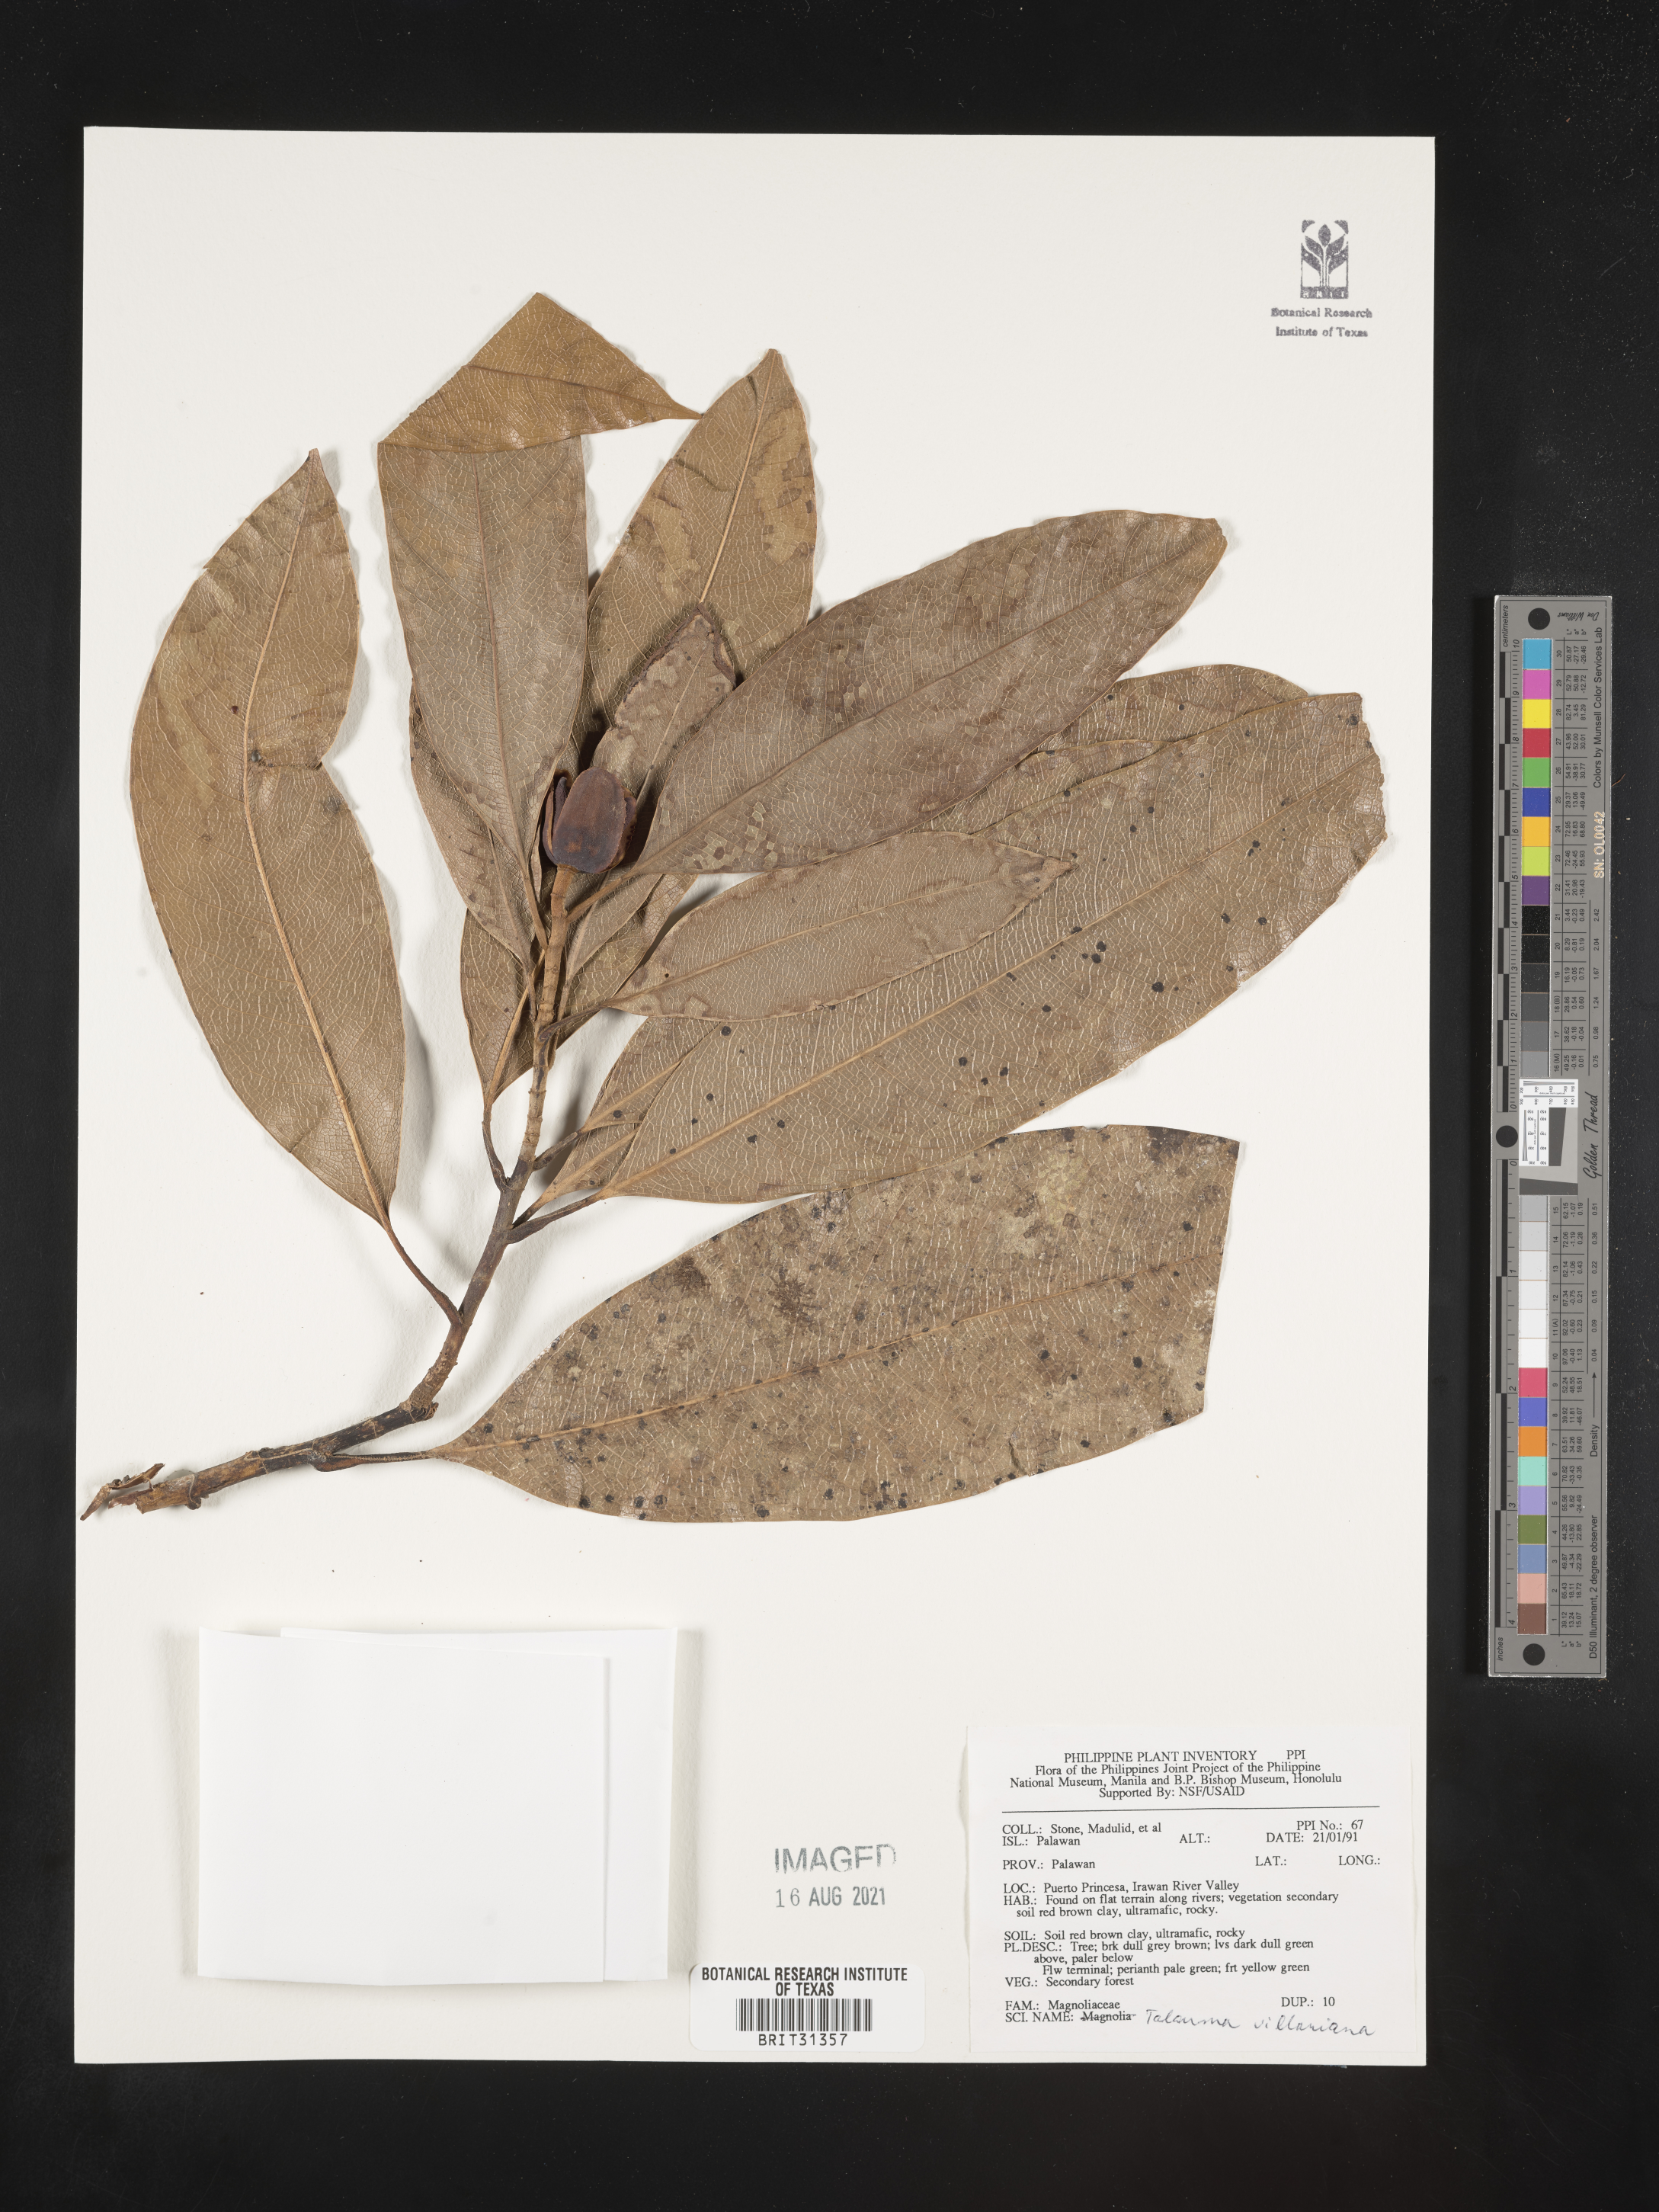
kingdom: Plantae
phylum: Tracheophyta
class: Magnoliopsida
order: Magnoliales
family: Magnoliaceae
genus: Magnolia
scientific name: Magnolia angatensis
